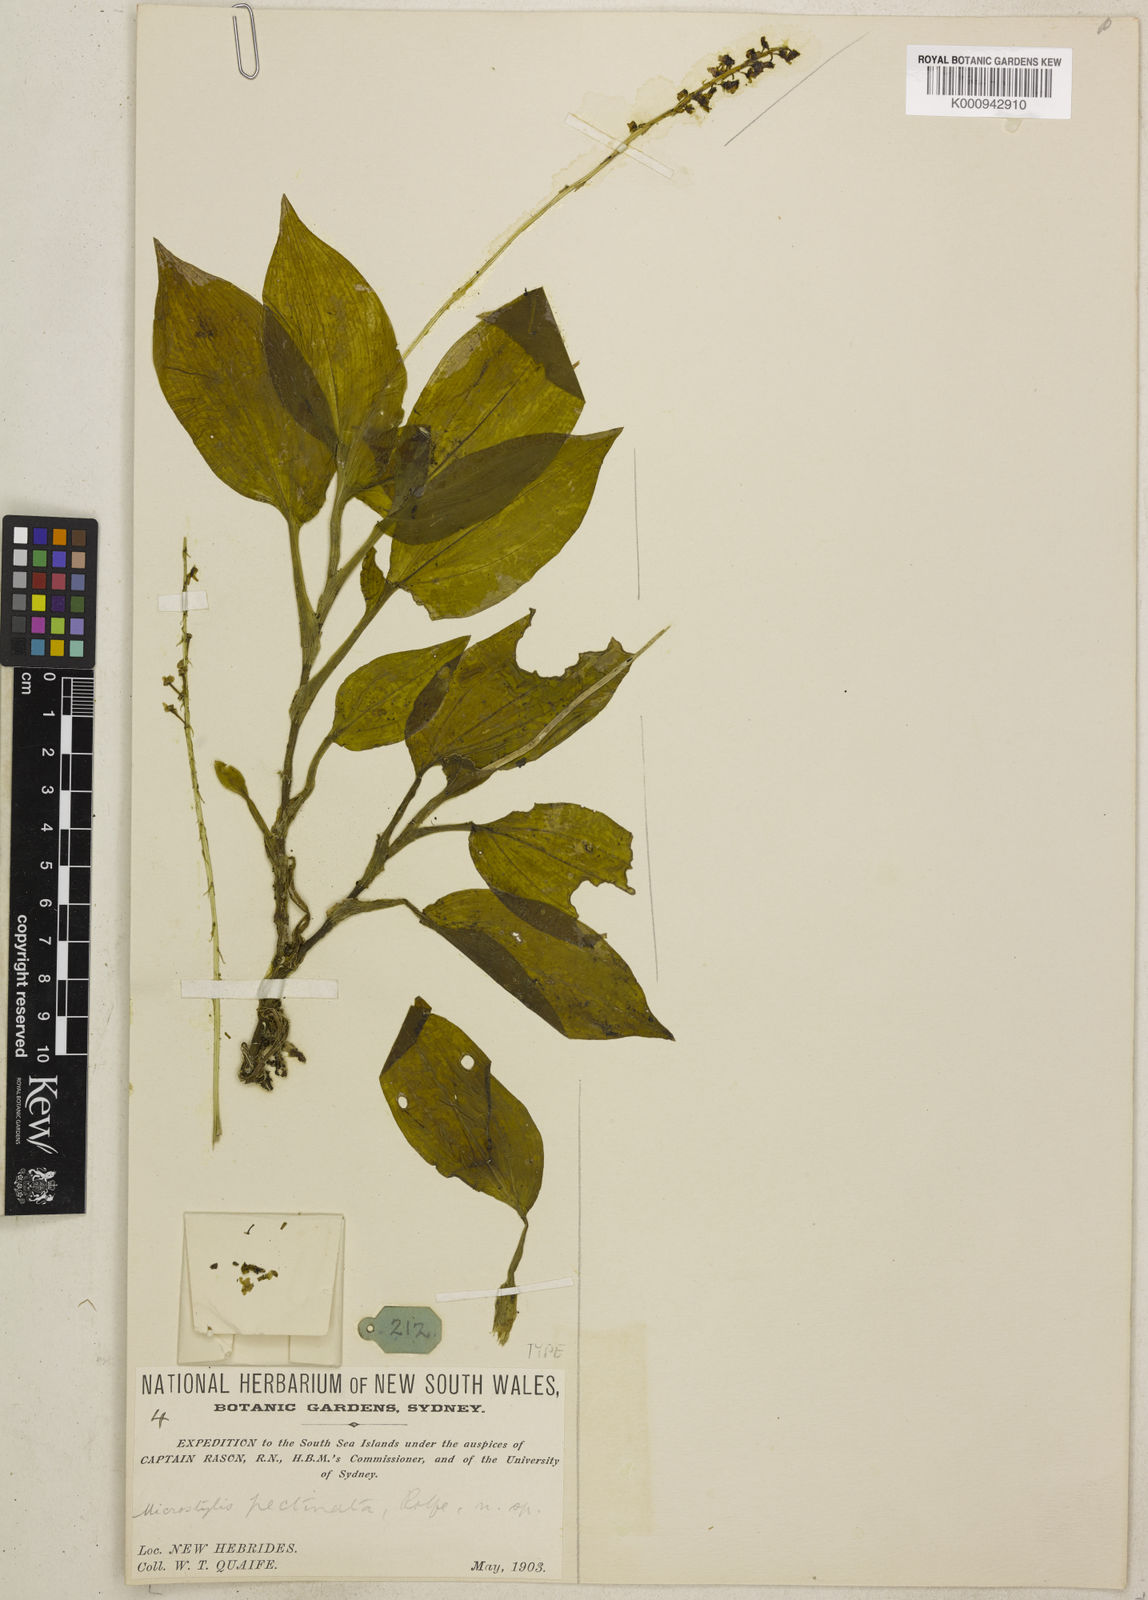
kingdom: Plantae
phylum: Tracheophyta
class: Liliopsida
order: Asparagales
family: Orchidaceae
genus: Crepidium
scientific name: Crepidium reineckeanum
